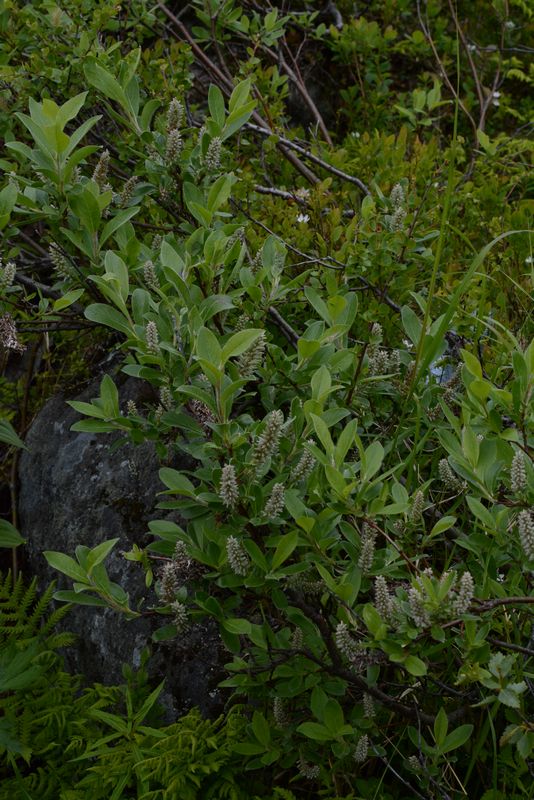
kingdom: Plantae
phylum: Tracheophyta
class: Magnoliopsida
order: Malpighiales
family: Salicaceae
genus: Salix
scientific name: Salix
